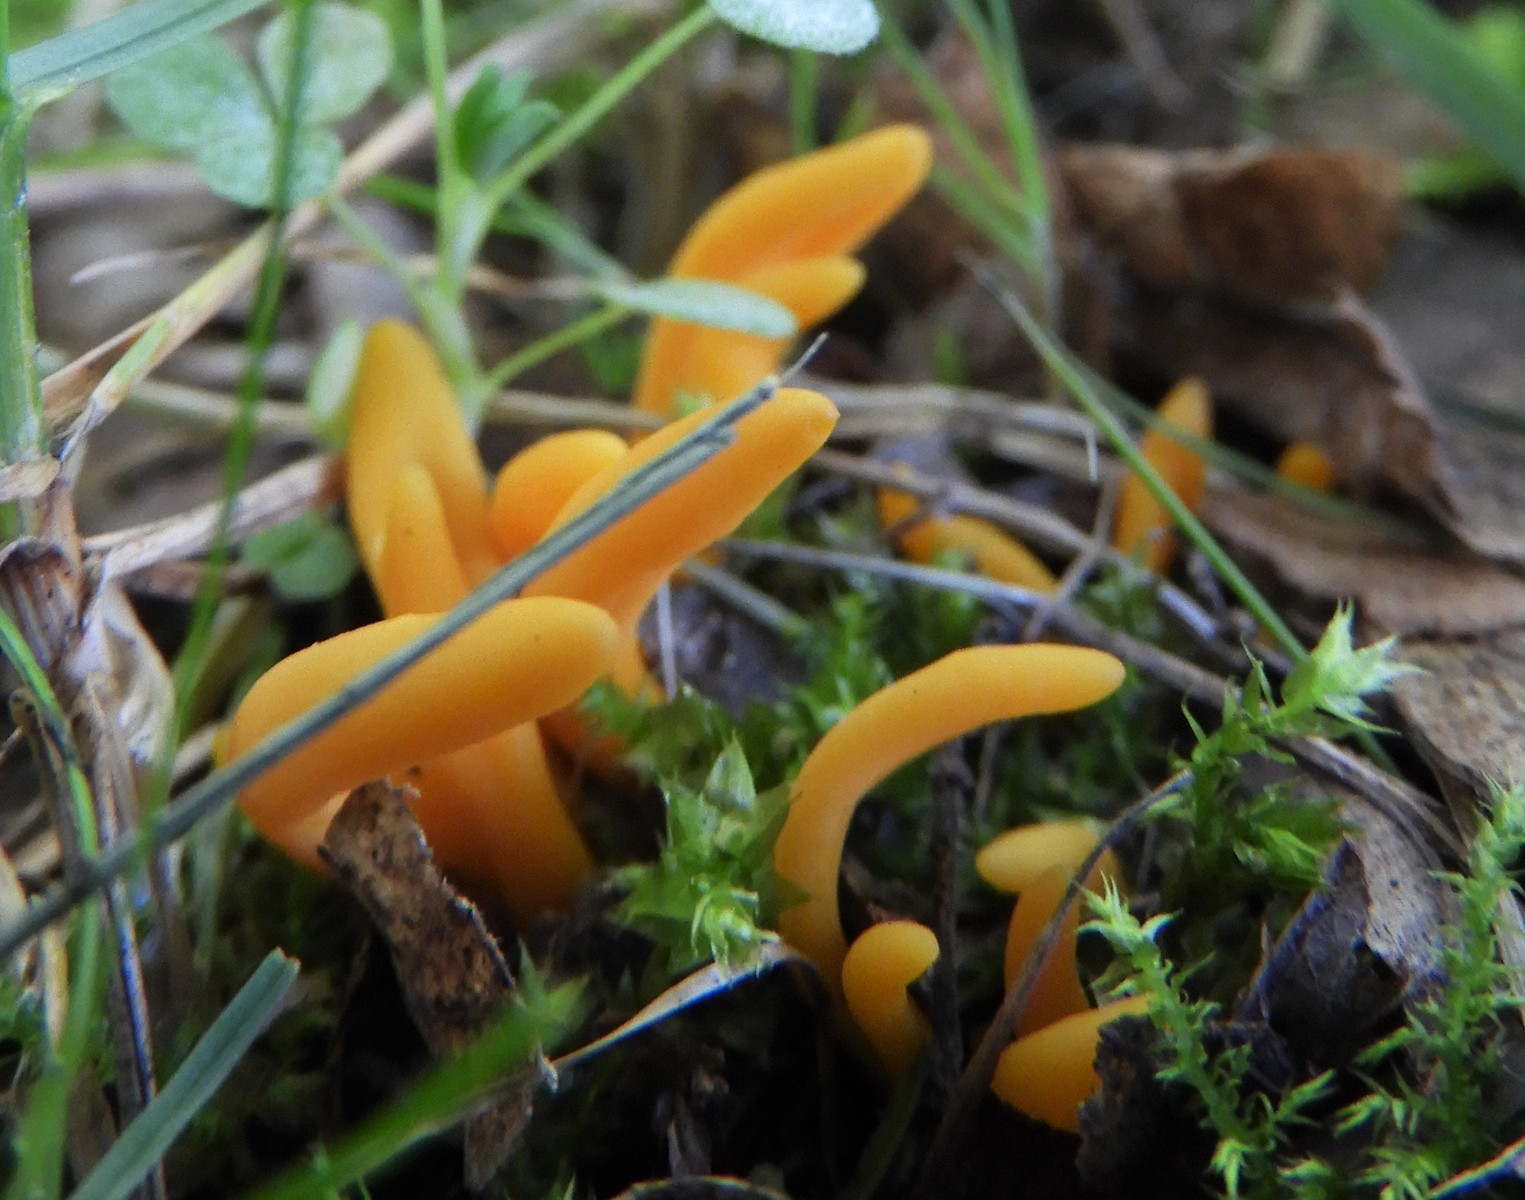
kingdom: Fungi
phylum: Basidiomycota
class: Agaricomycetes
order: Agaricales
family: Clavariaceae
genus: Clavulinopsis
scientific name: Clavulinopsis
